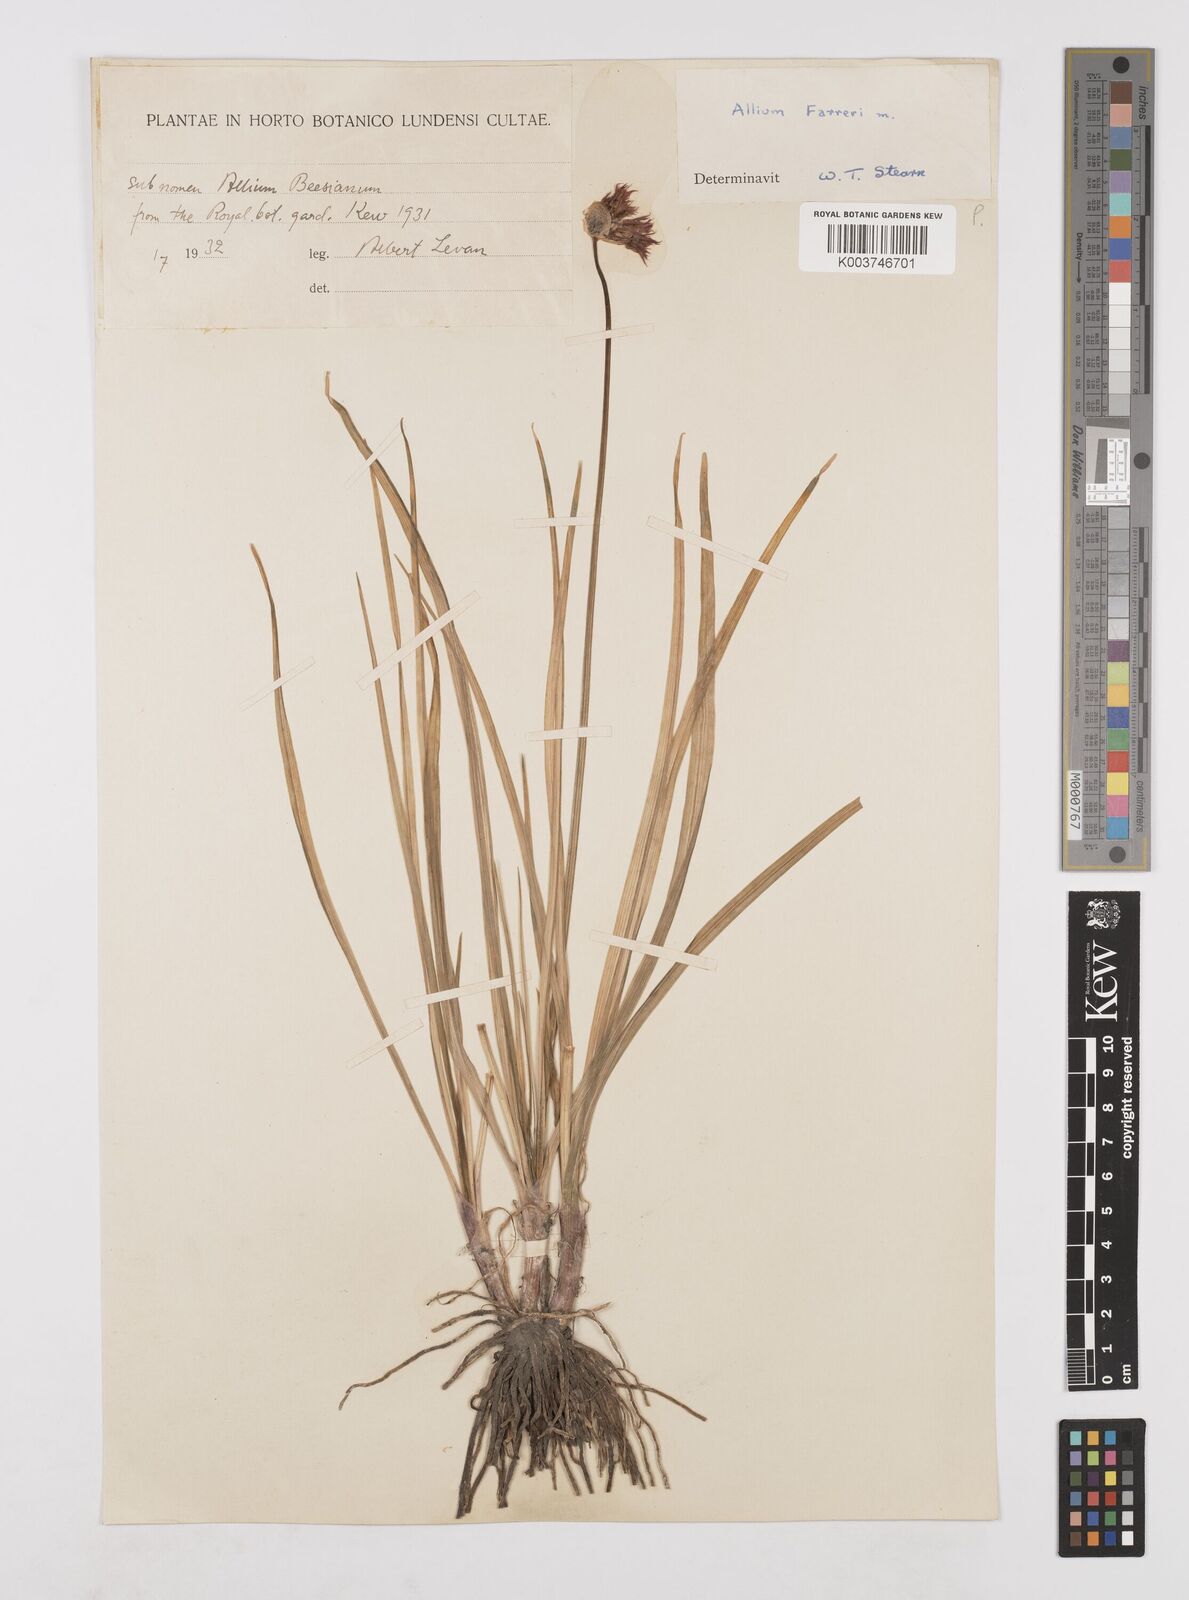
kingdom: Plantae
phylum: Tracheophyta
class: Liliopsida
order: Asparagales
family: Amaryllidaceae
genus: Allium
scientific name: Allium farreri
